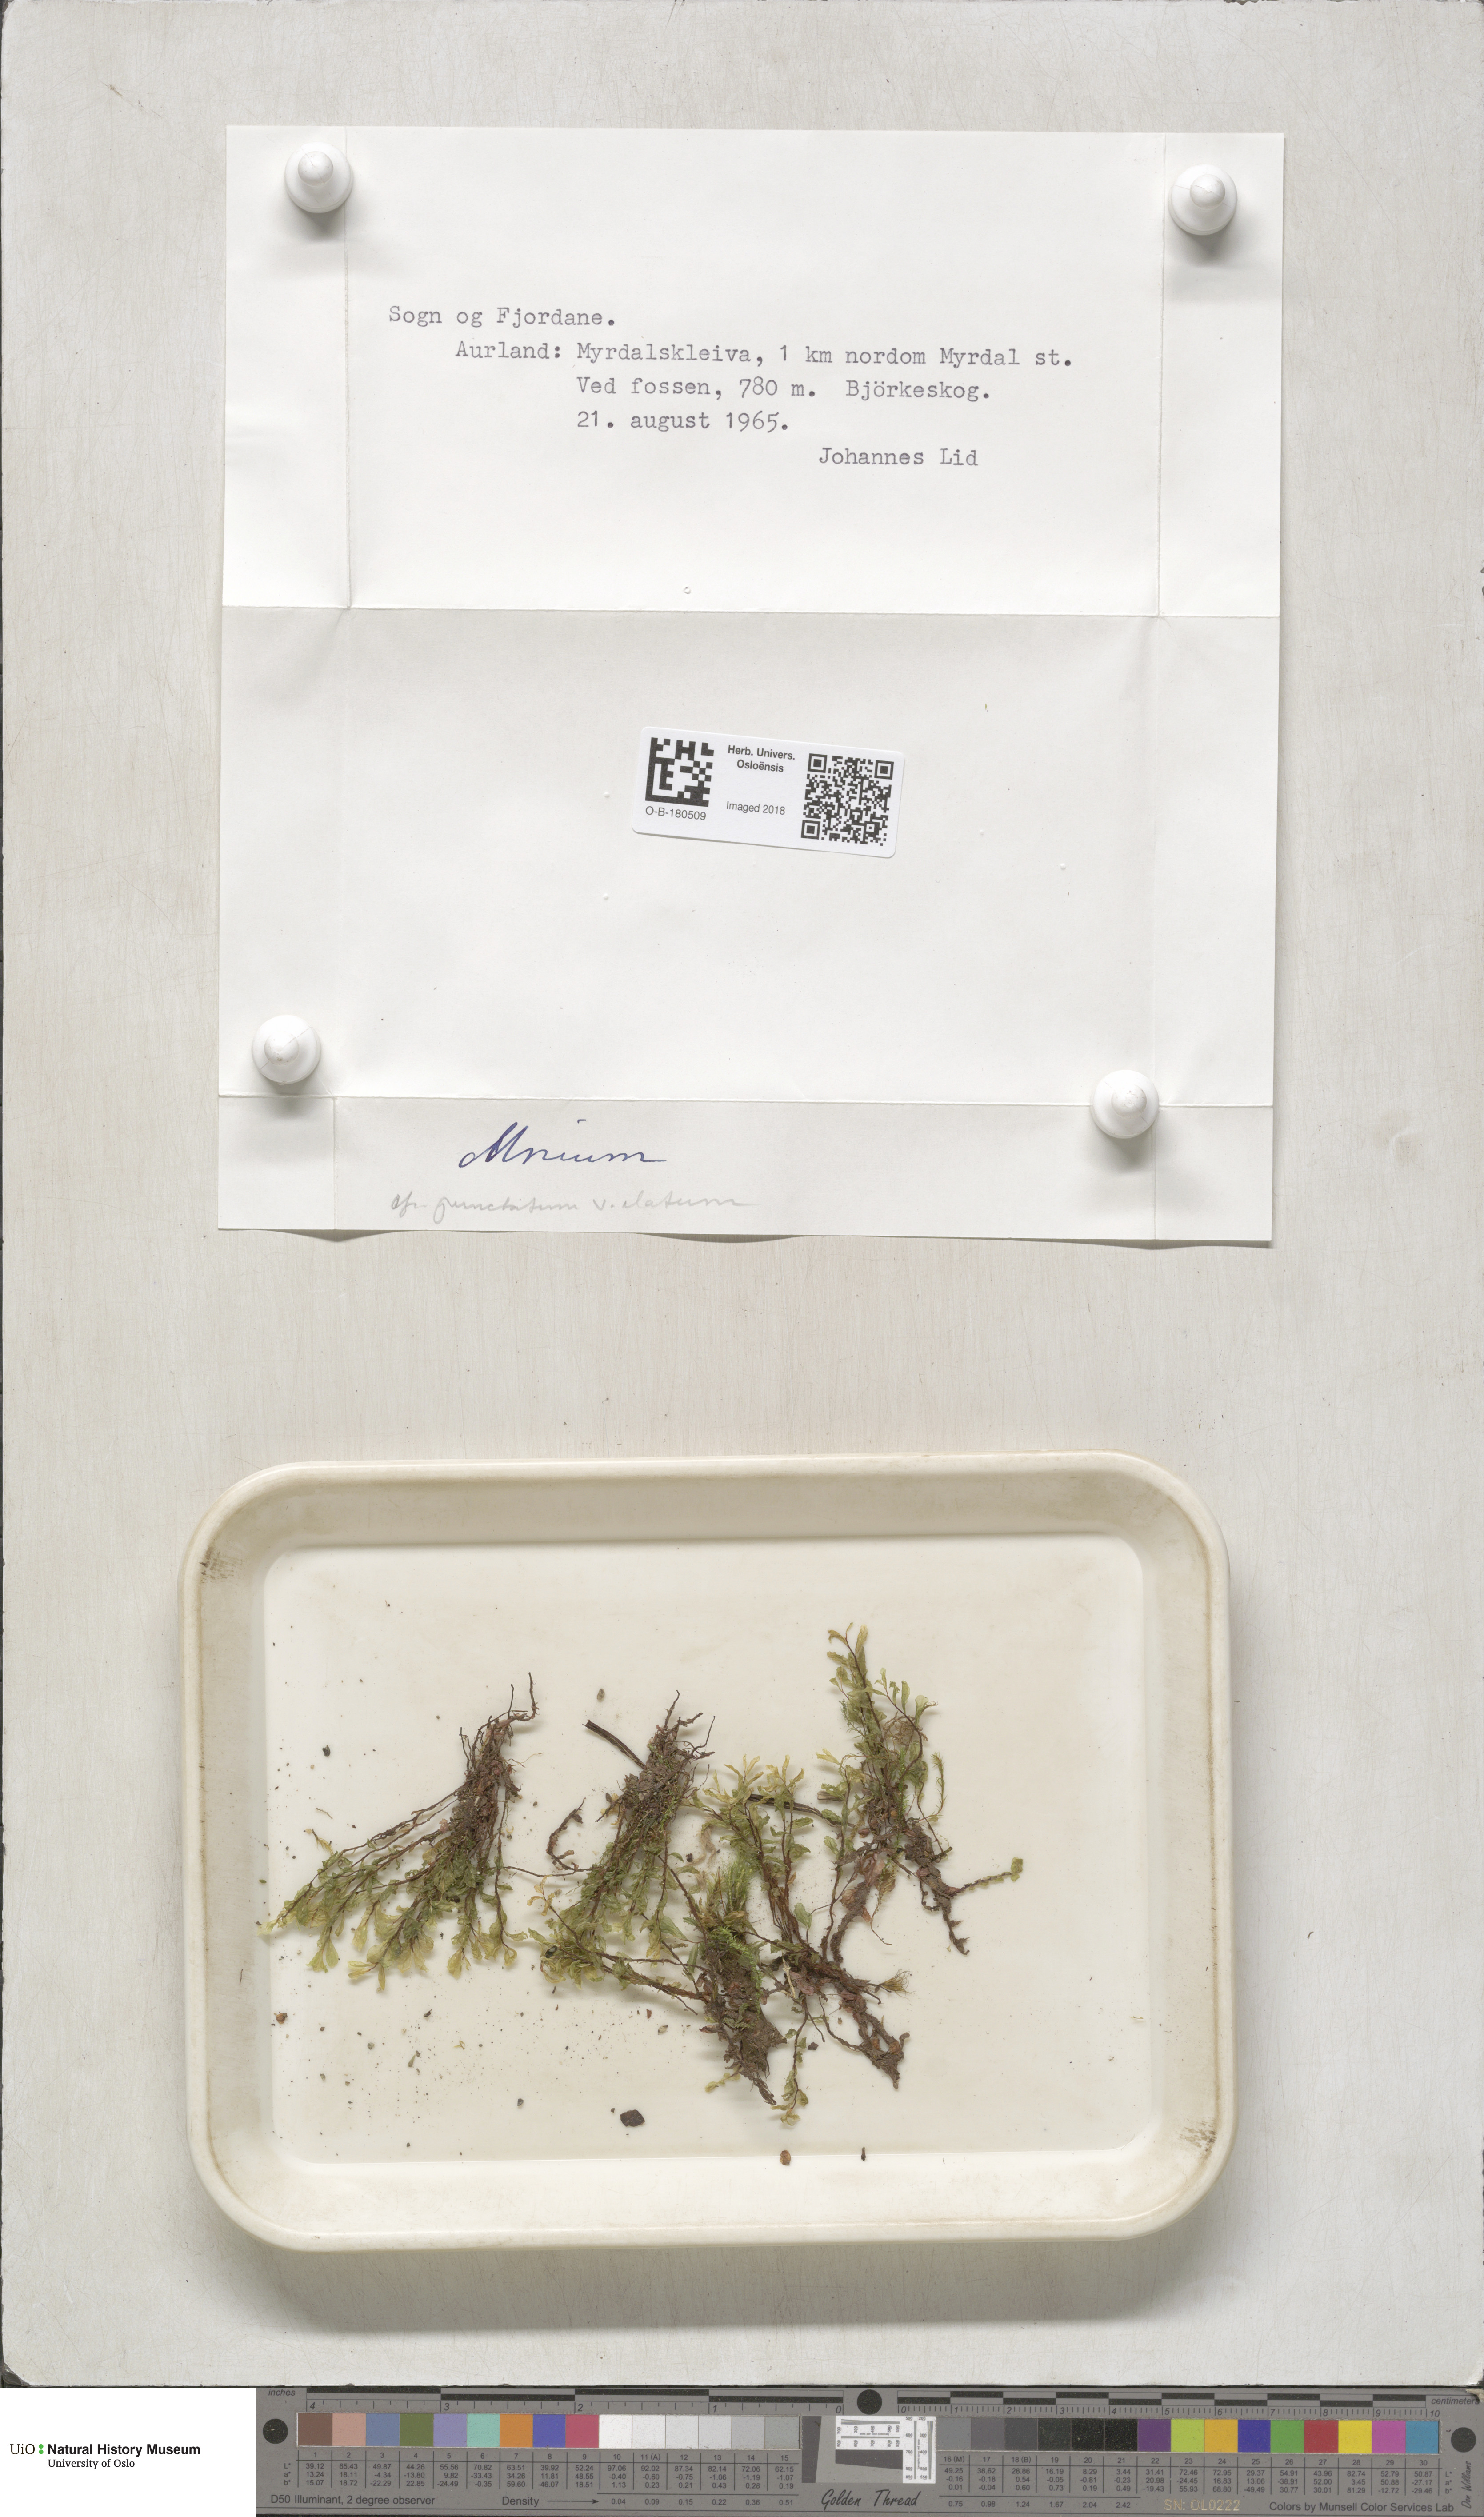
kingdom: Plantae
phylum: Bryophyta
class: Bryopsida
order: Bryales
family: Mniaceae
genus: Rhizomnium
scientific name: Rhizomnium punctatum
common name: Dotted leafy moss
